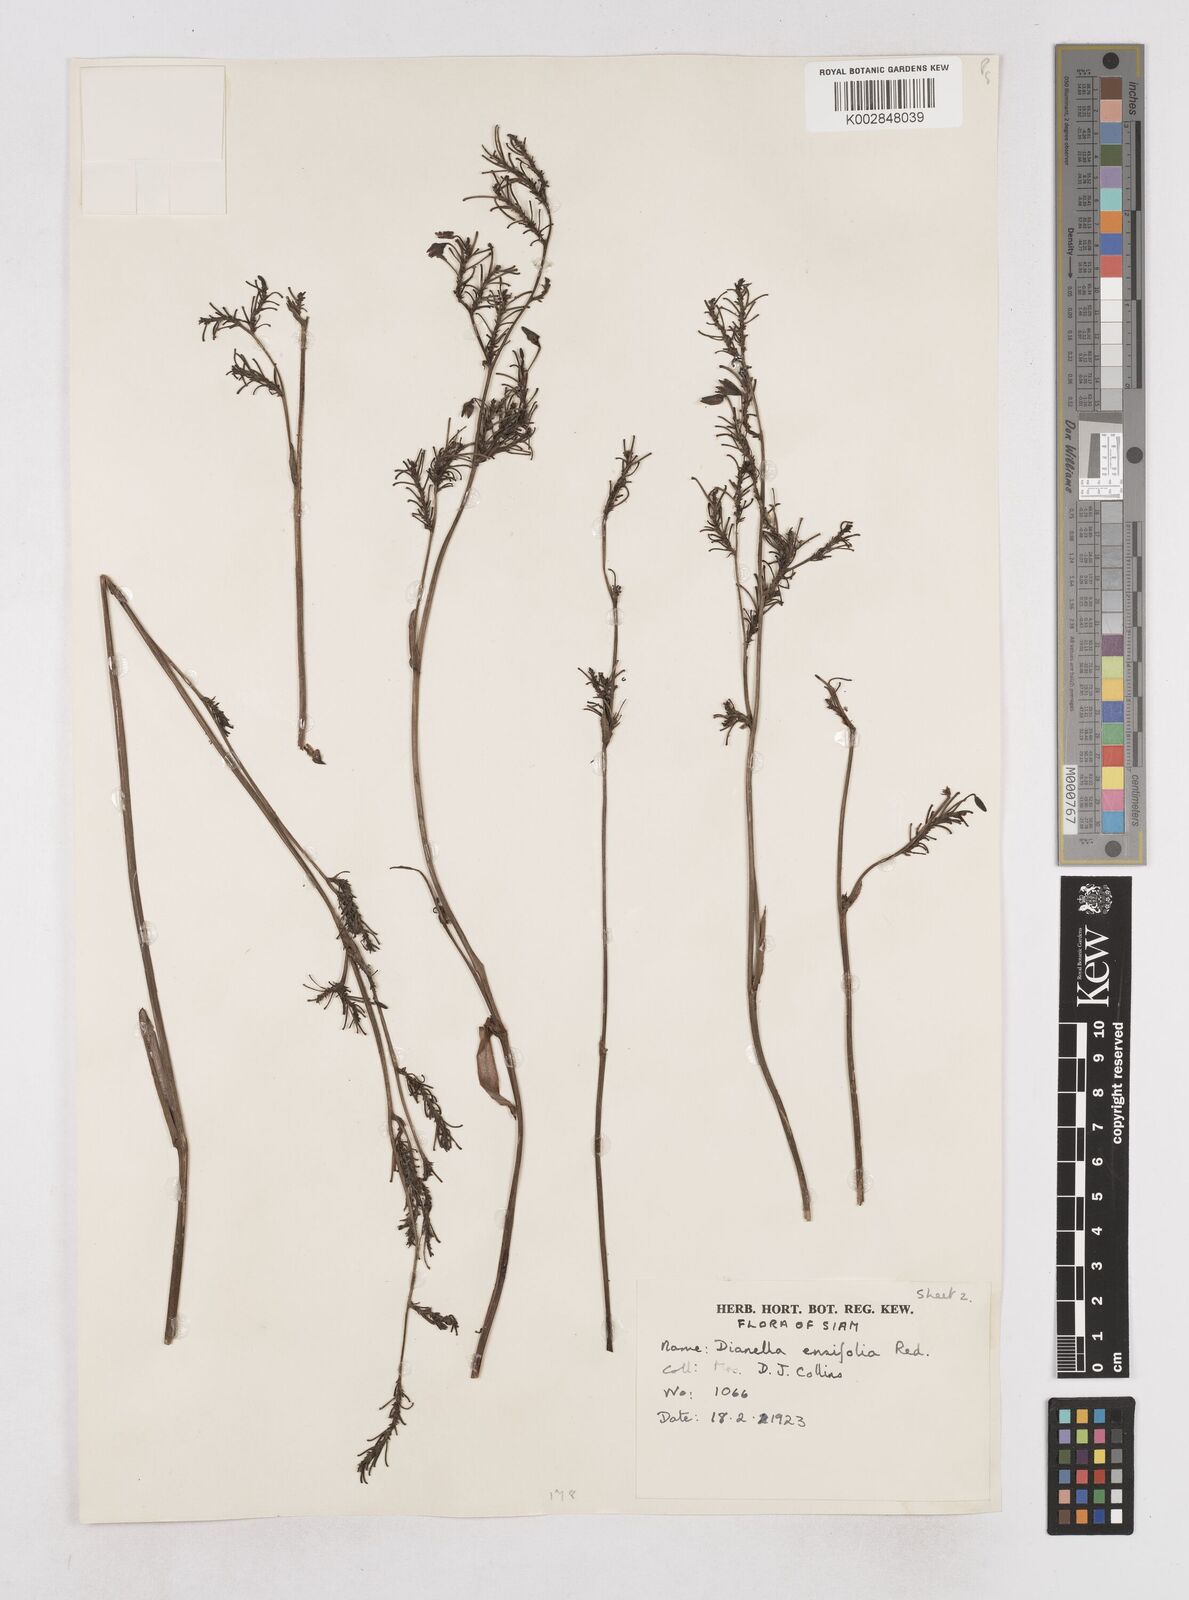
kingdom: Plantae
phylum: Tracheophyta
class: Liliopsida
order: Asparagales
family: Asphodelaceae
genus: Dianella
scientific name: Dianella ensifolia
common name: New zealand lilyplant
